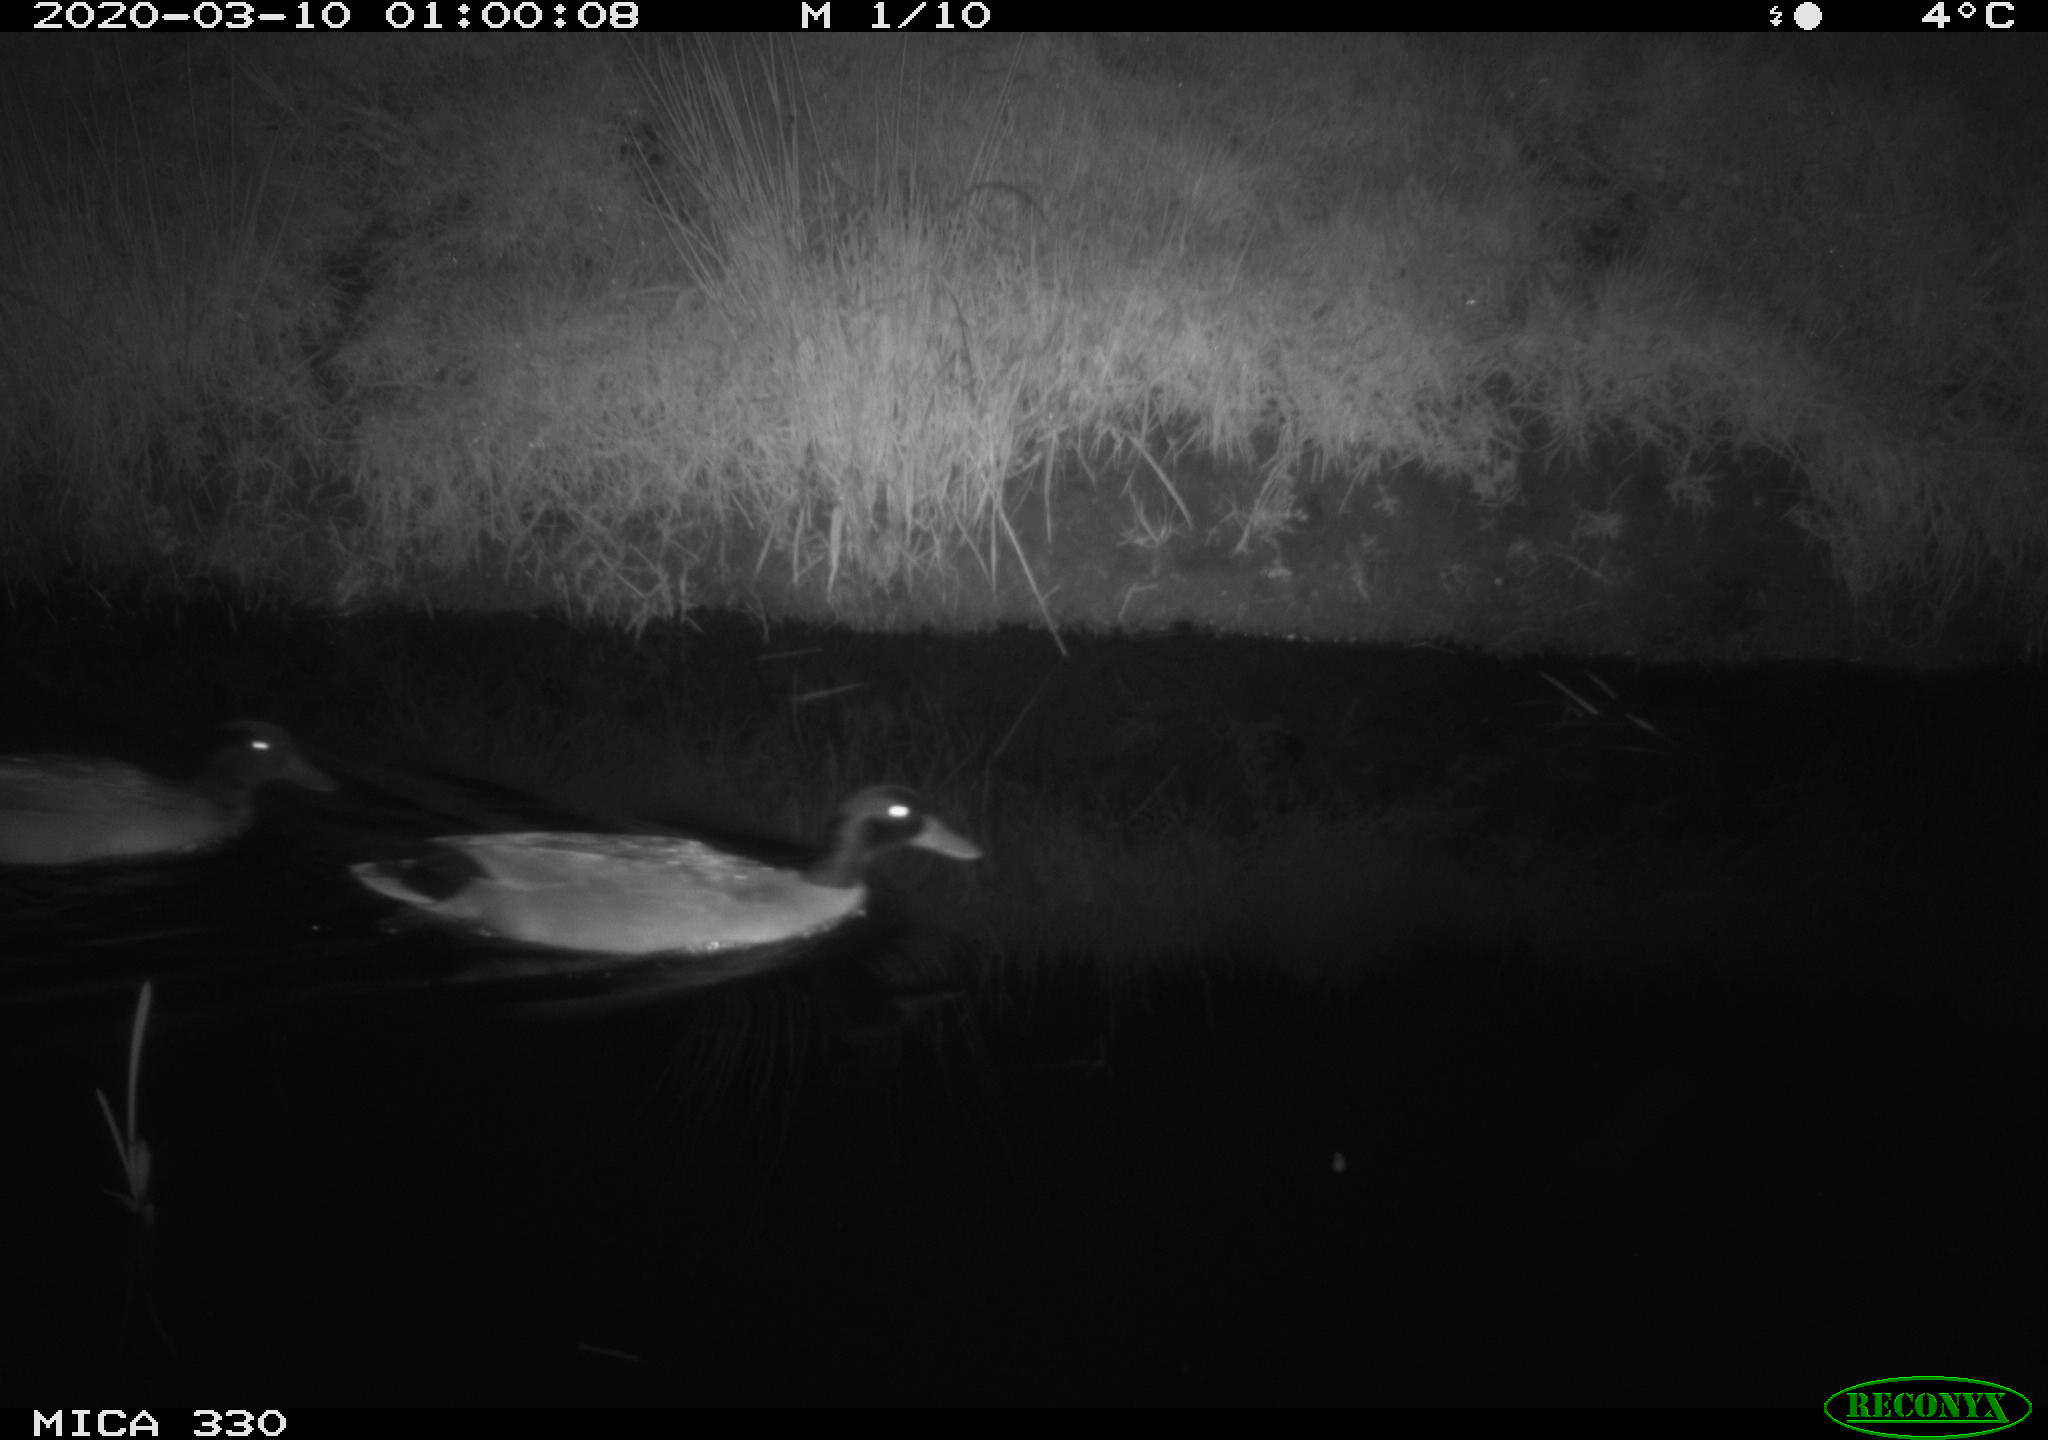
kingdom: Animalia
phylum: Chordata
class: Aves
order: Anseriformes
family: Anatidae
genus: Anas
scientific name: Anas platyrhynchos
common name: Mallard
